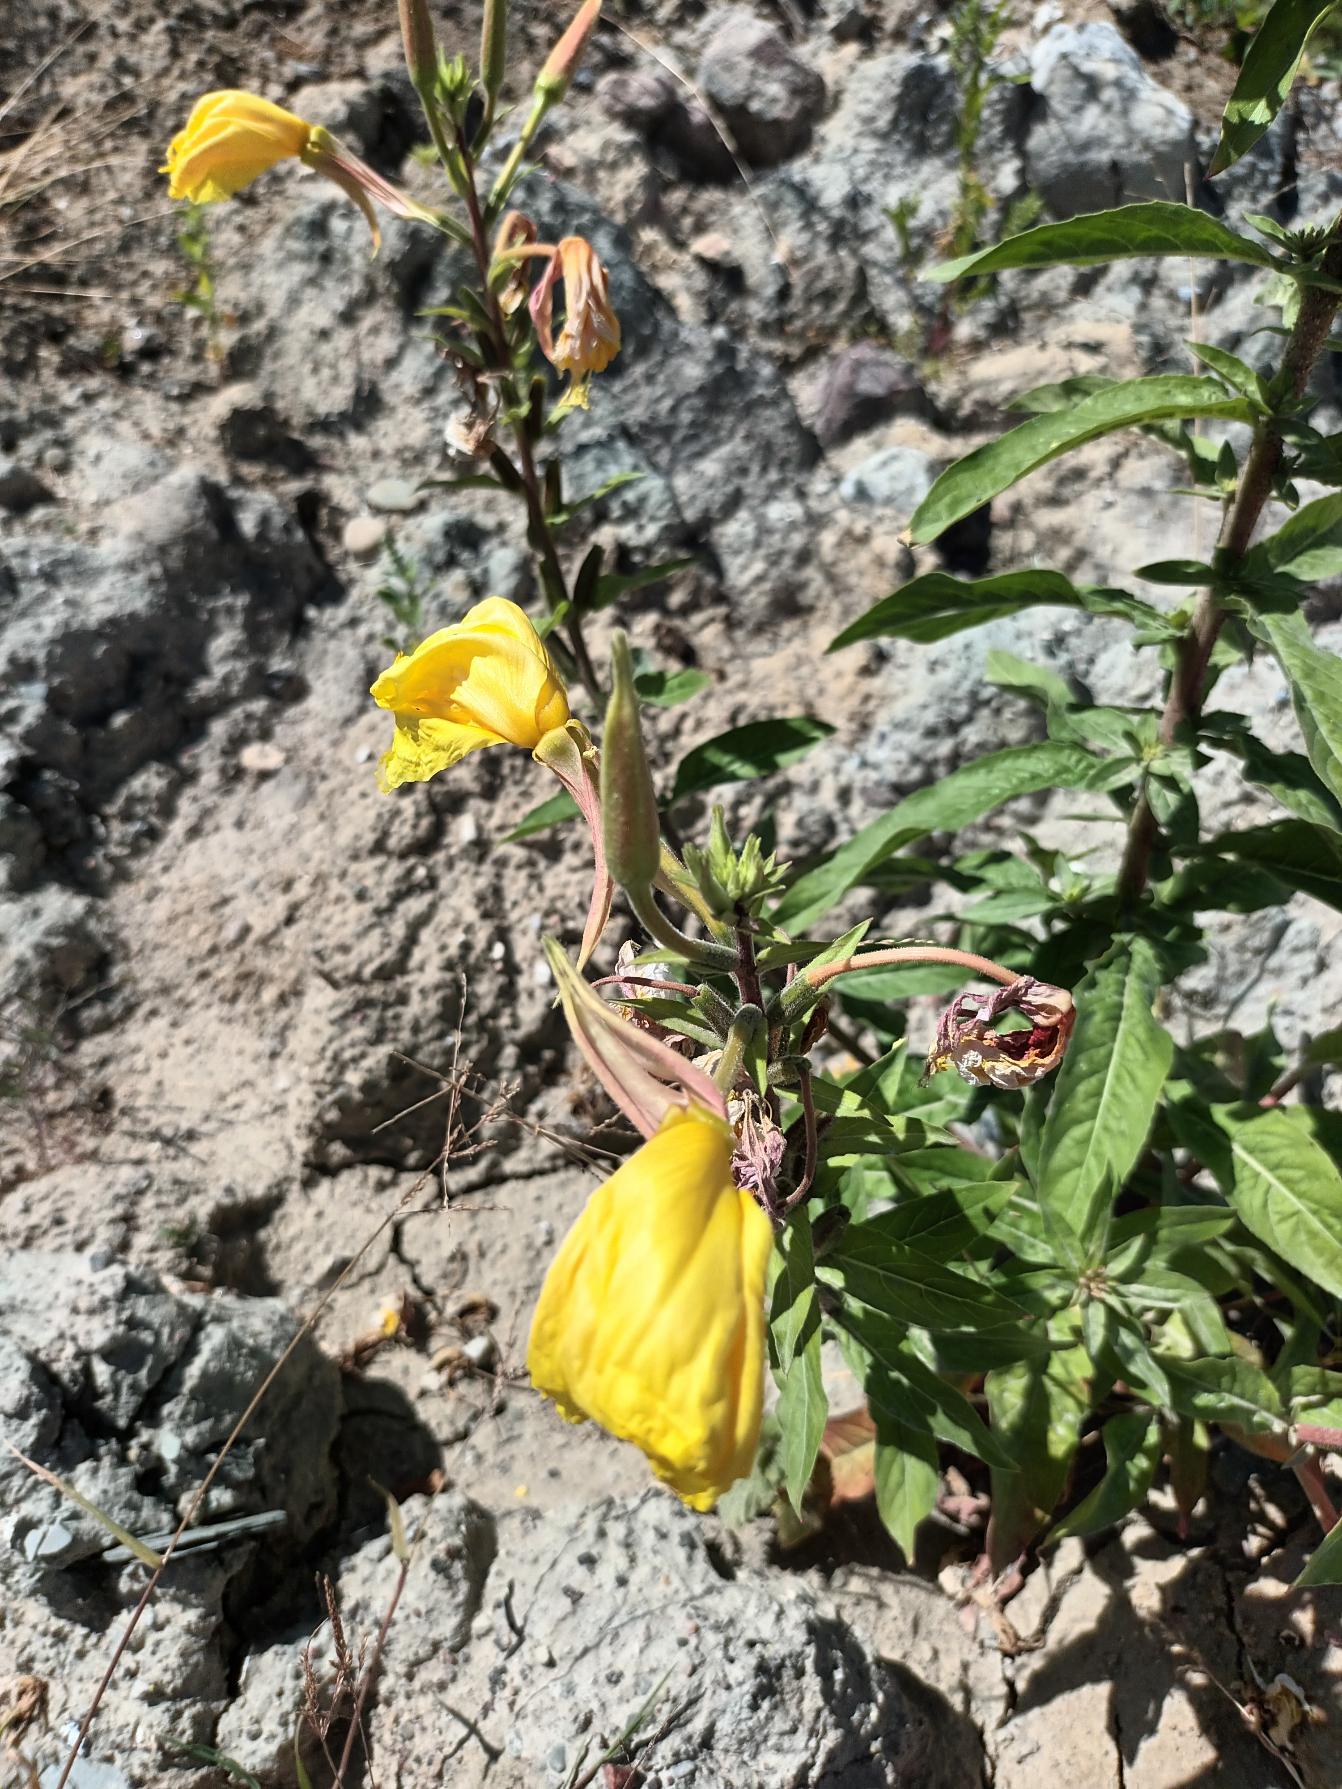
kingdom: Plantae
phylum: Tracheophyta
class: Magnoliopsida
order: Myrtales
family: Onagraceae
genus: Oenothera
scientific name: Oenothera glazioviana
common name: Kæmpe-natlys
